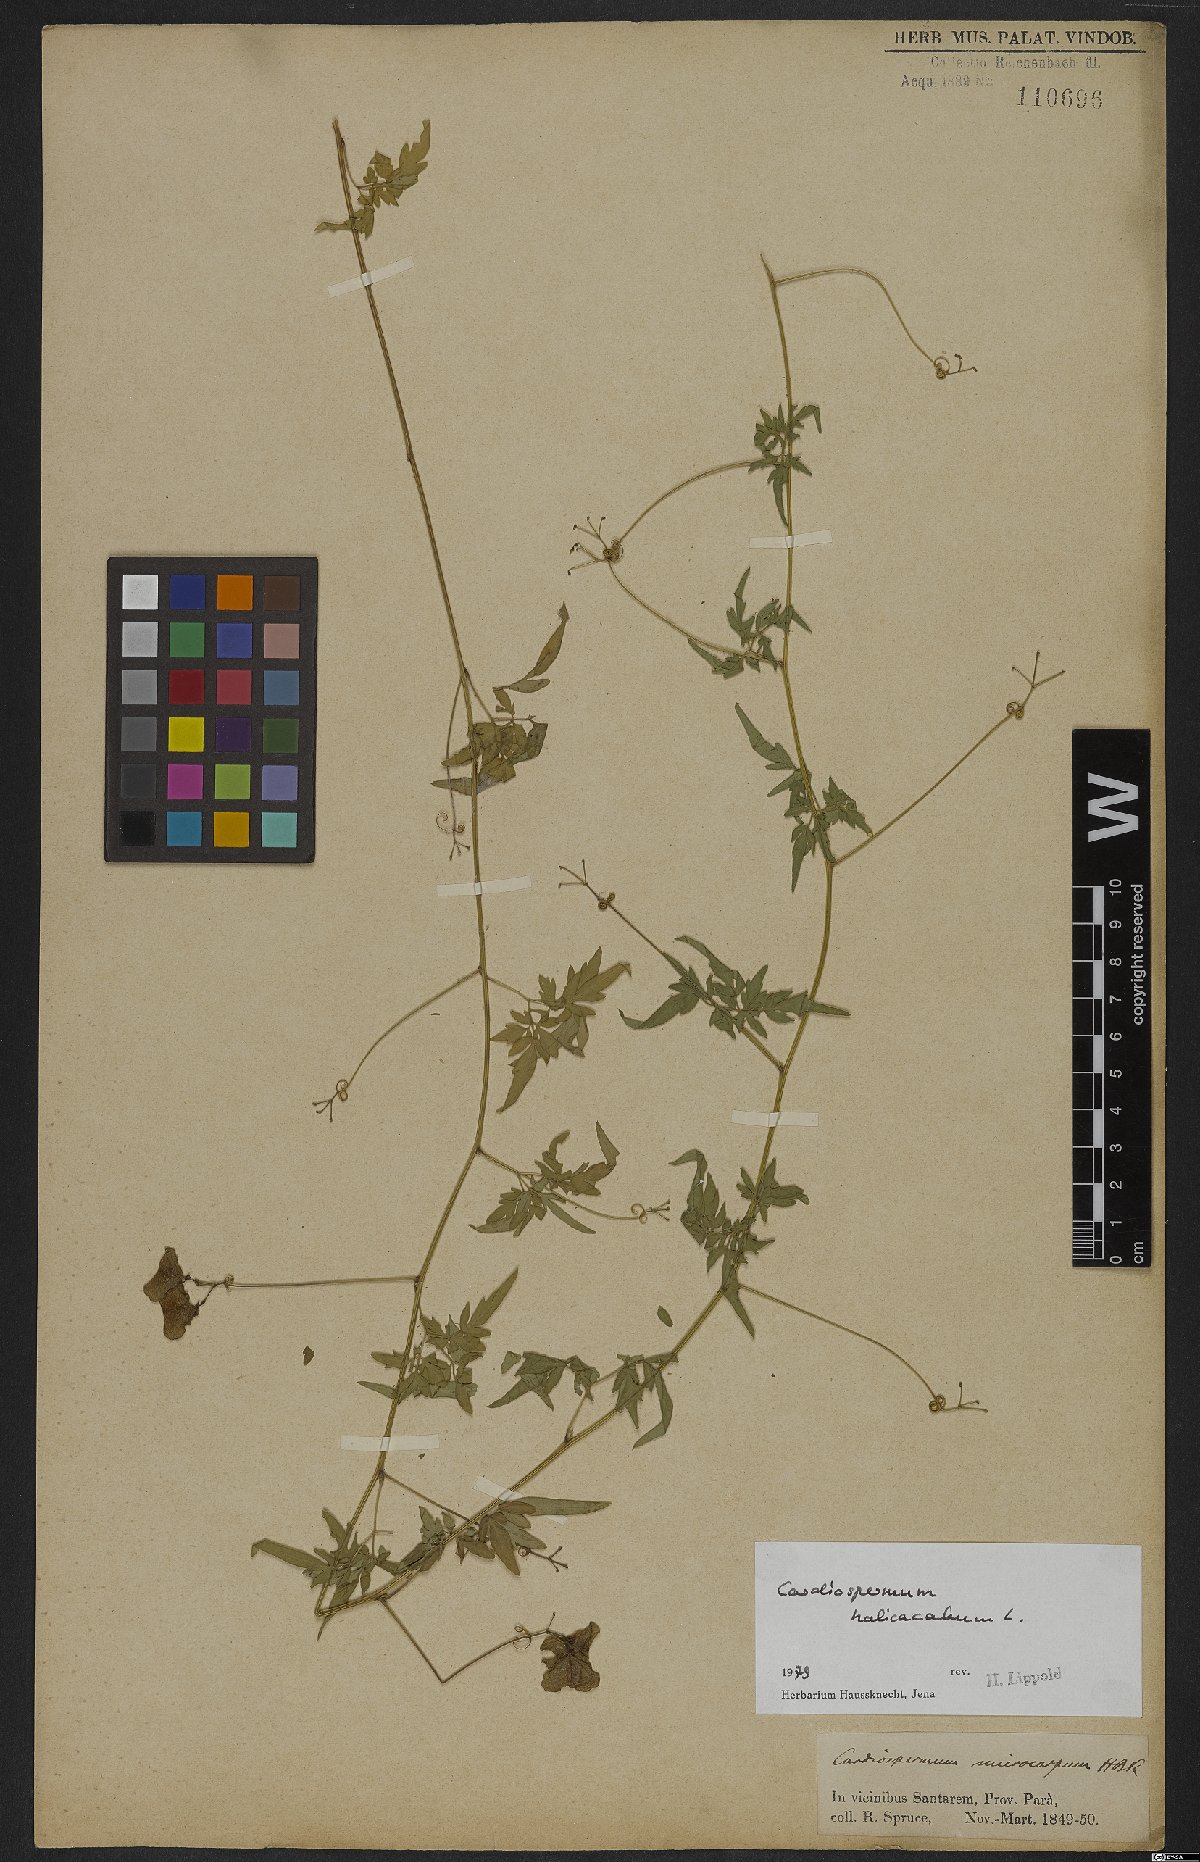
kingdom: Plantae
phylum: Tracheophyta
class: Magnoliopsida
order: Sapindales
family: Sapindaceae
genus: Cardiospermum
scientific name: Cardiospermum halicacabum
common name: Balloon vine
